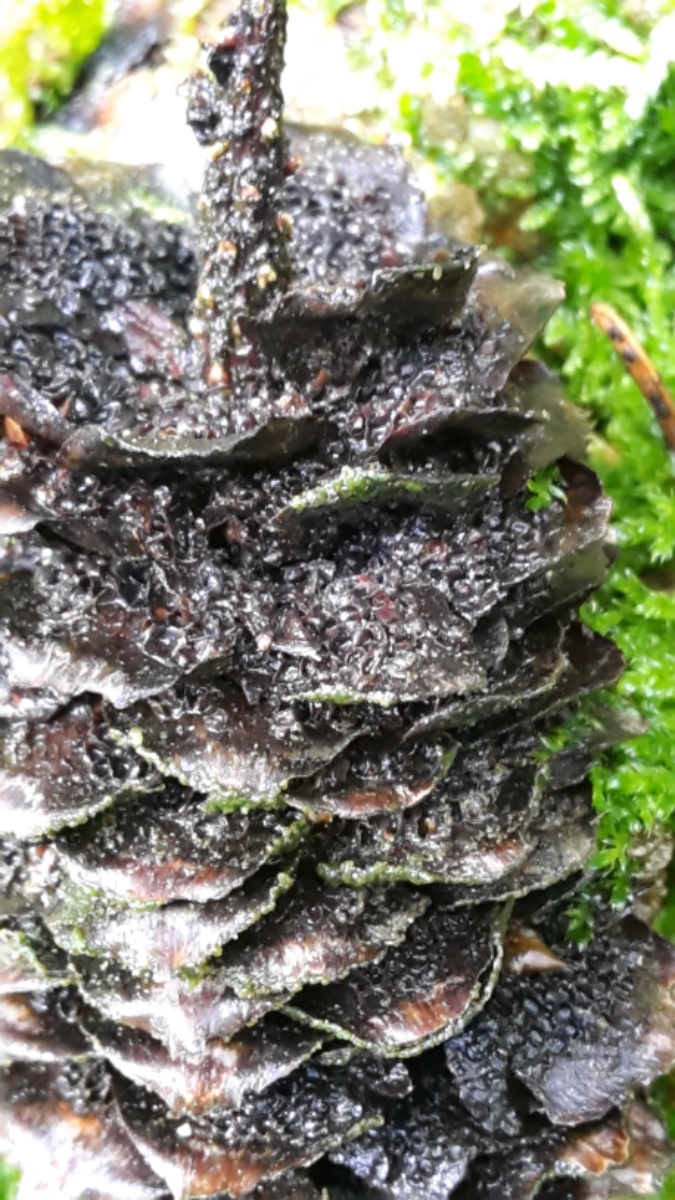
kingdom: Fungi
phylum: Basidiomycota
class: Pucciniomycetes
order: Pucciniales
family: Pucciniastraceae
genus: Thekopsora
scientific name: Thekopsora areolata
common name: grankogle-nålerust
